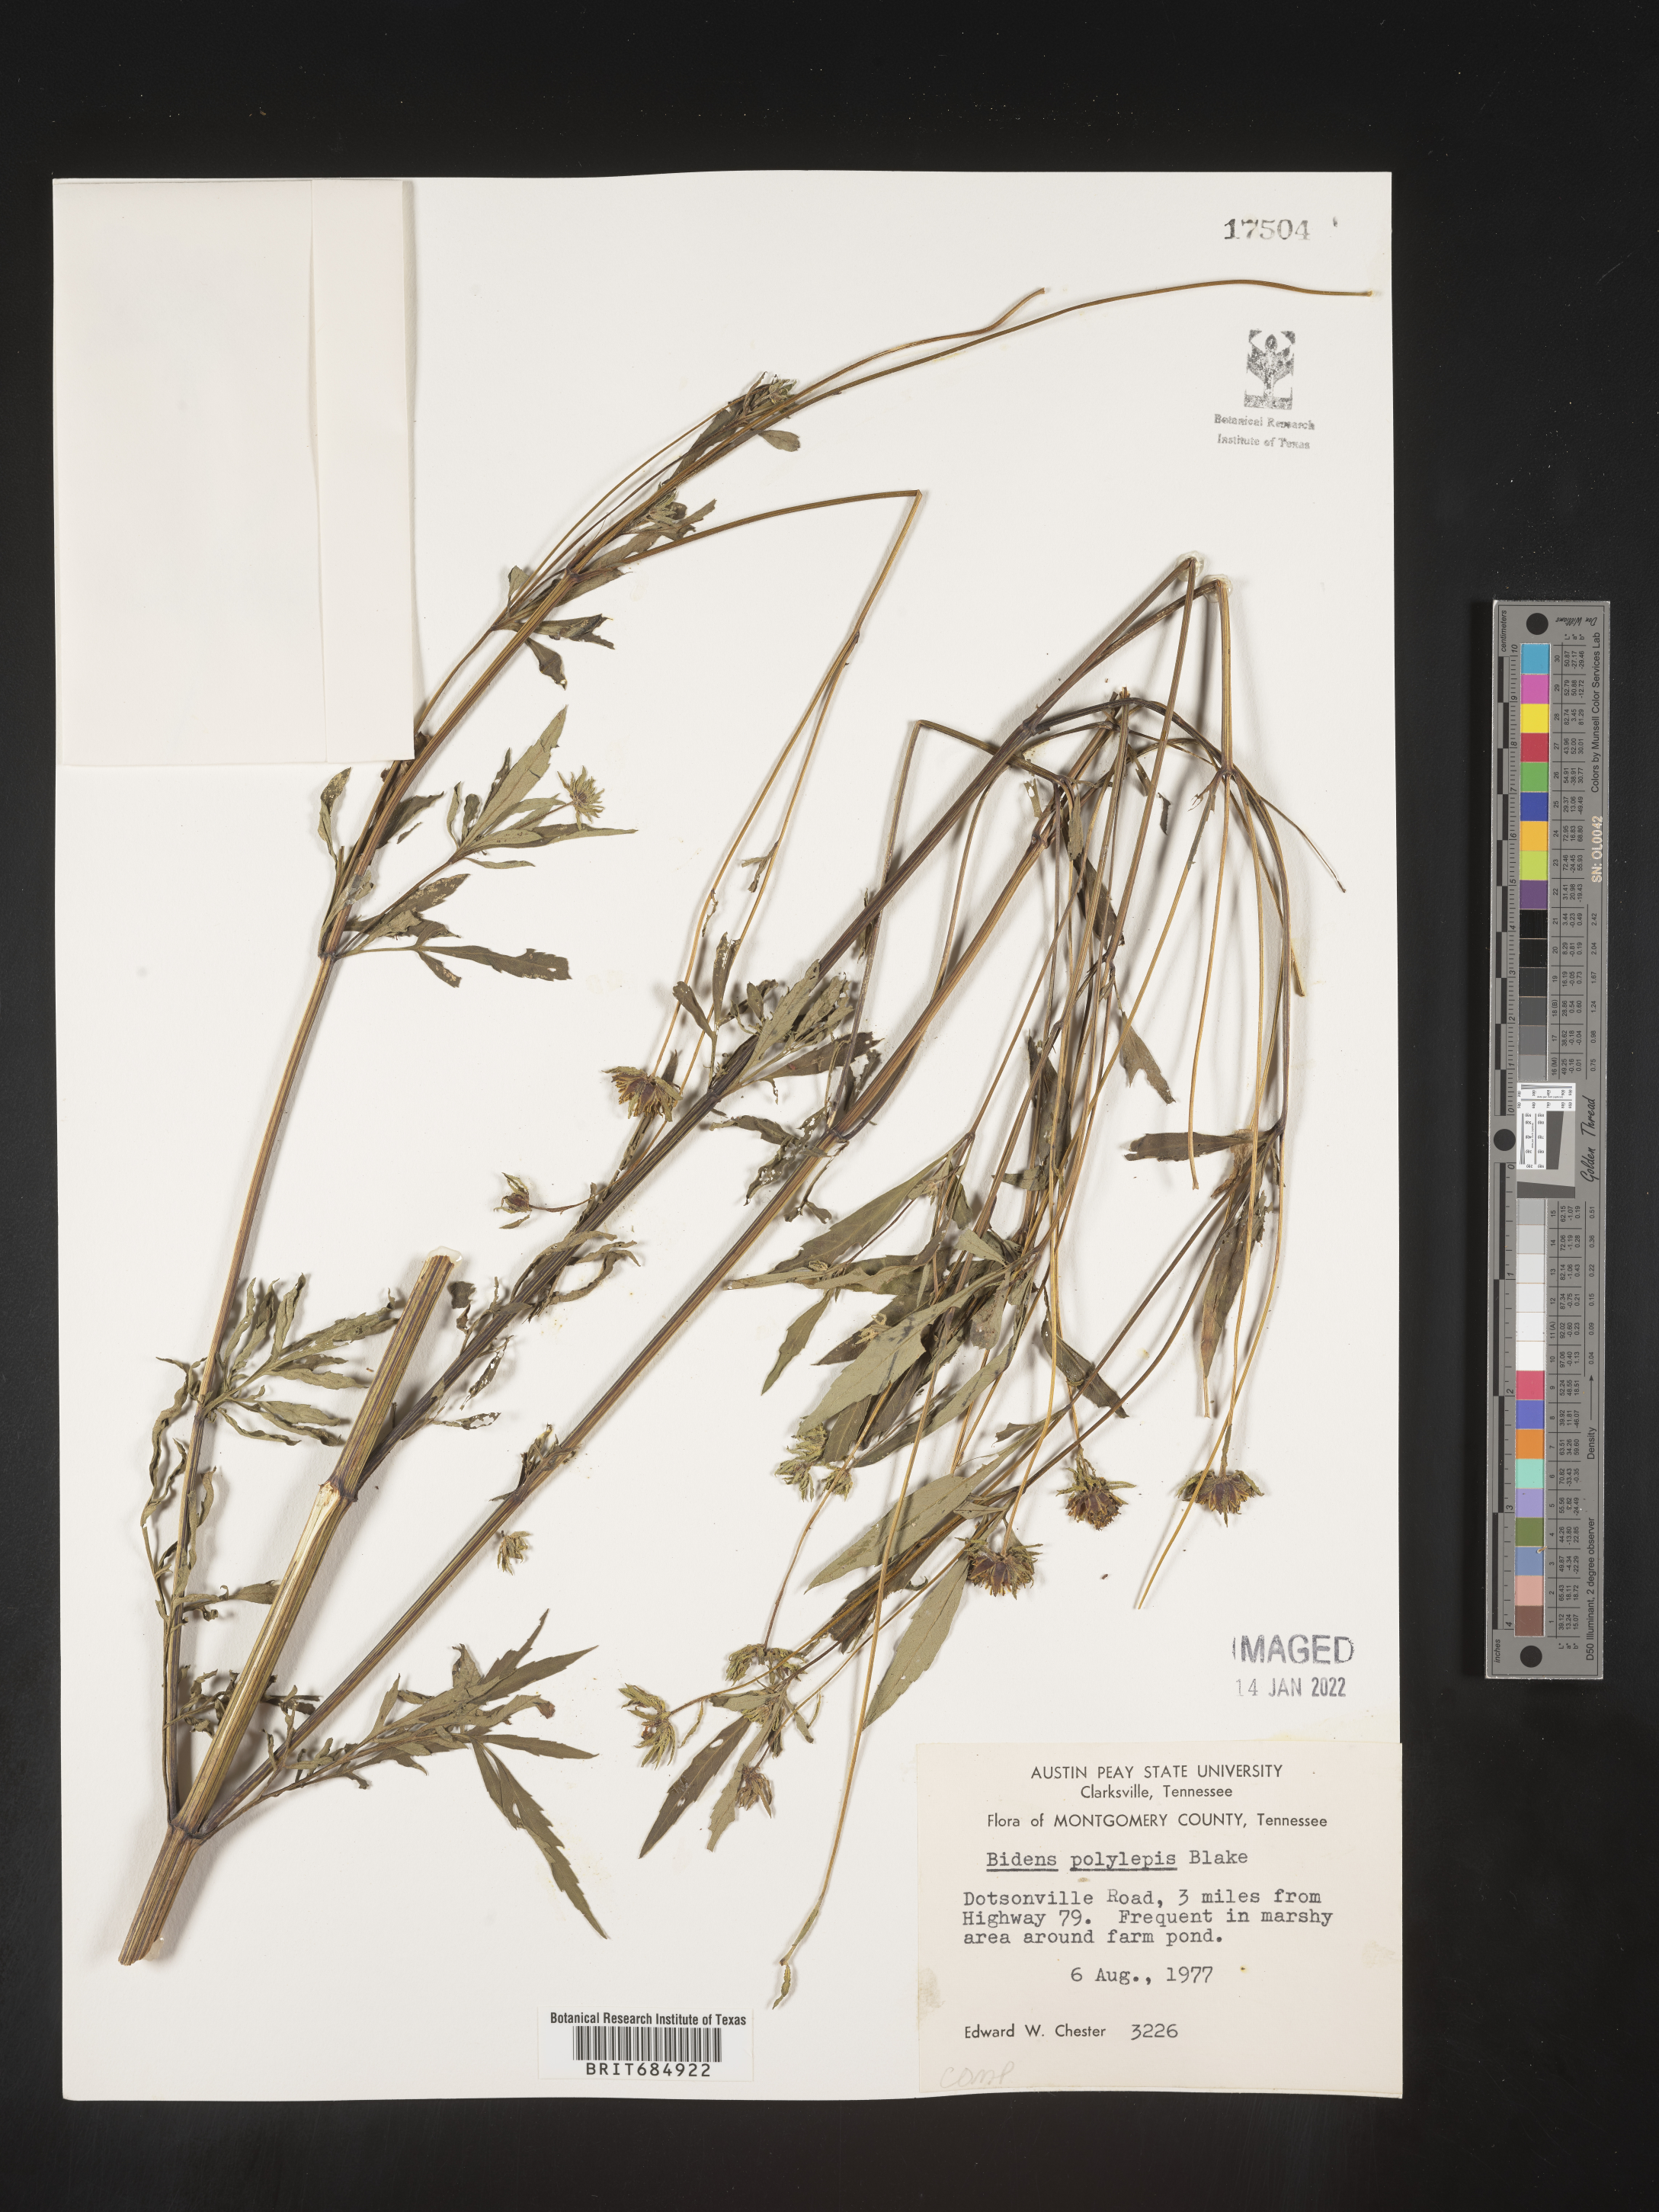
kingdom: Plantae
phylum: Tracheophyta
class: Magnoliopsida
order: Asterales
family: Asteraceae
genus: Bidens
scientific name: Bidens polylepis
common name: Awnless beggarticks
